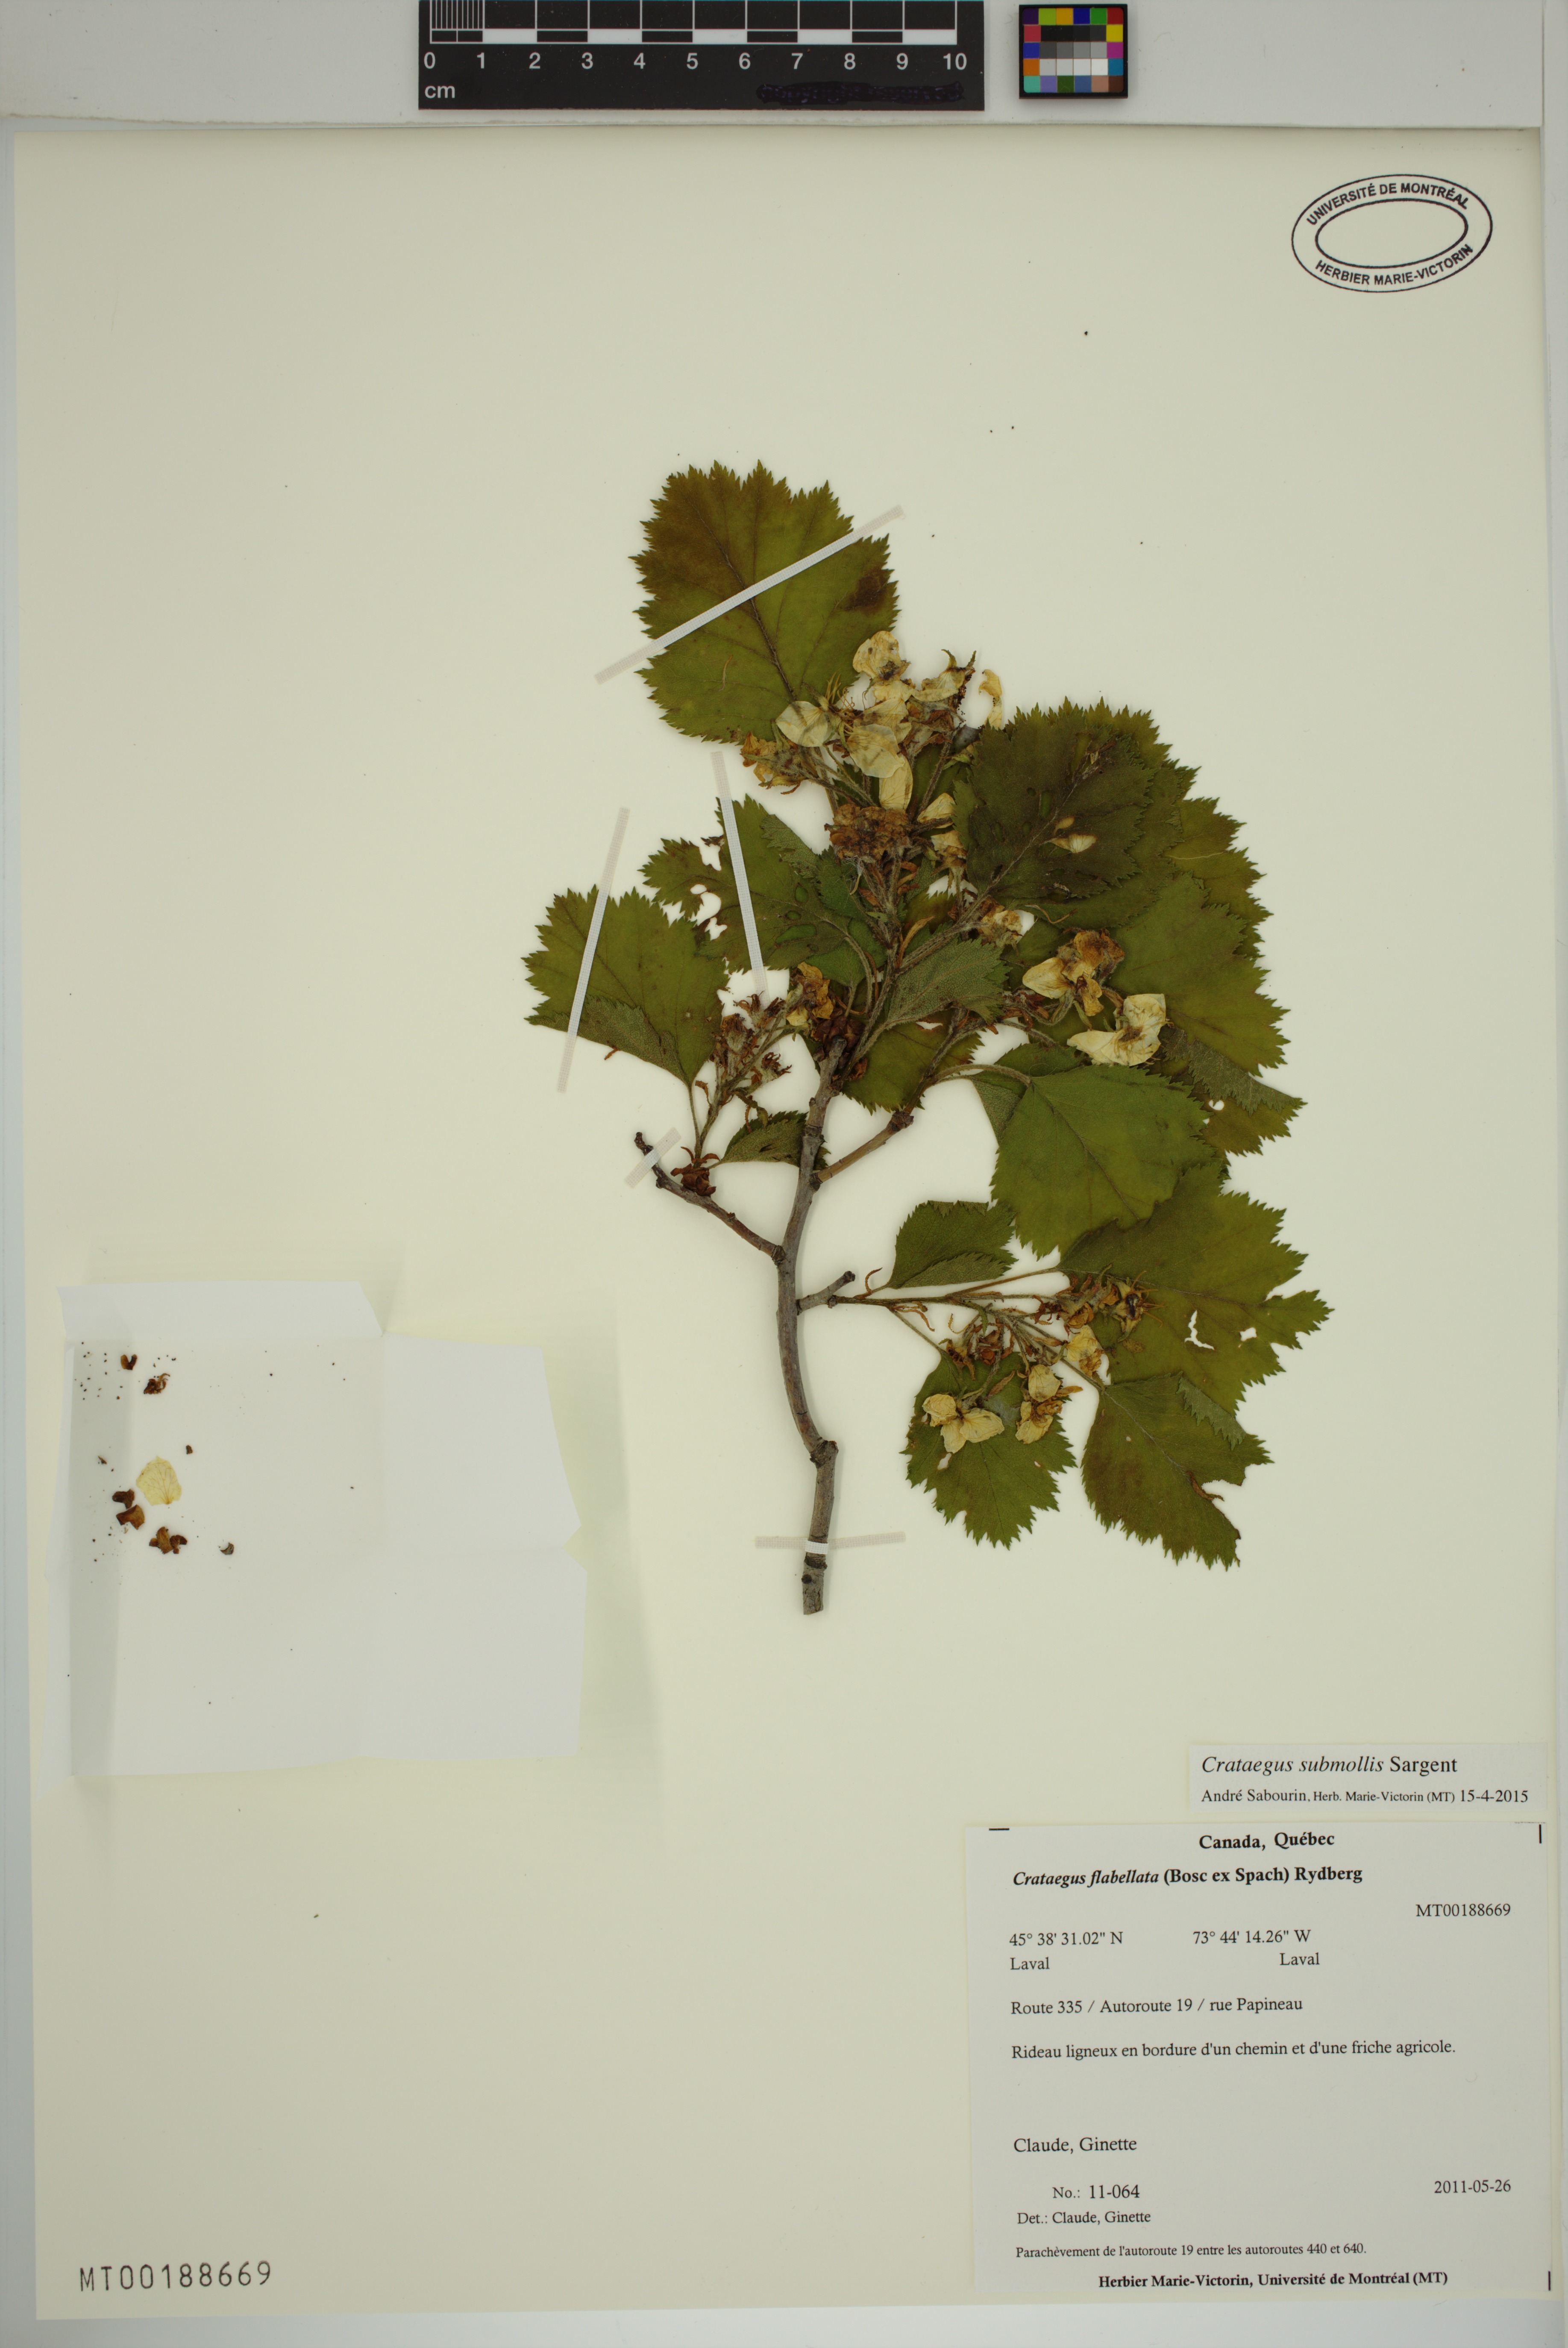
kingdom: Plantae
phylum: Tracheophyta
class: Magnoliopsida
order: Rosales
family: Rosaceae
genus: Crataegus
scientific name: Crataegus submollis
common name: Hairy cockspurthorn
